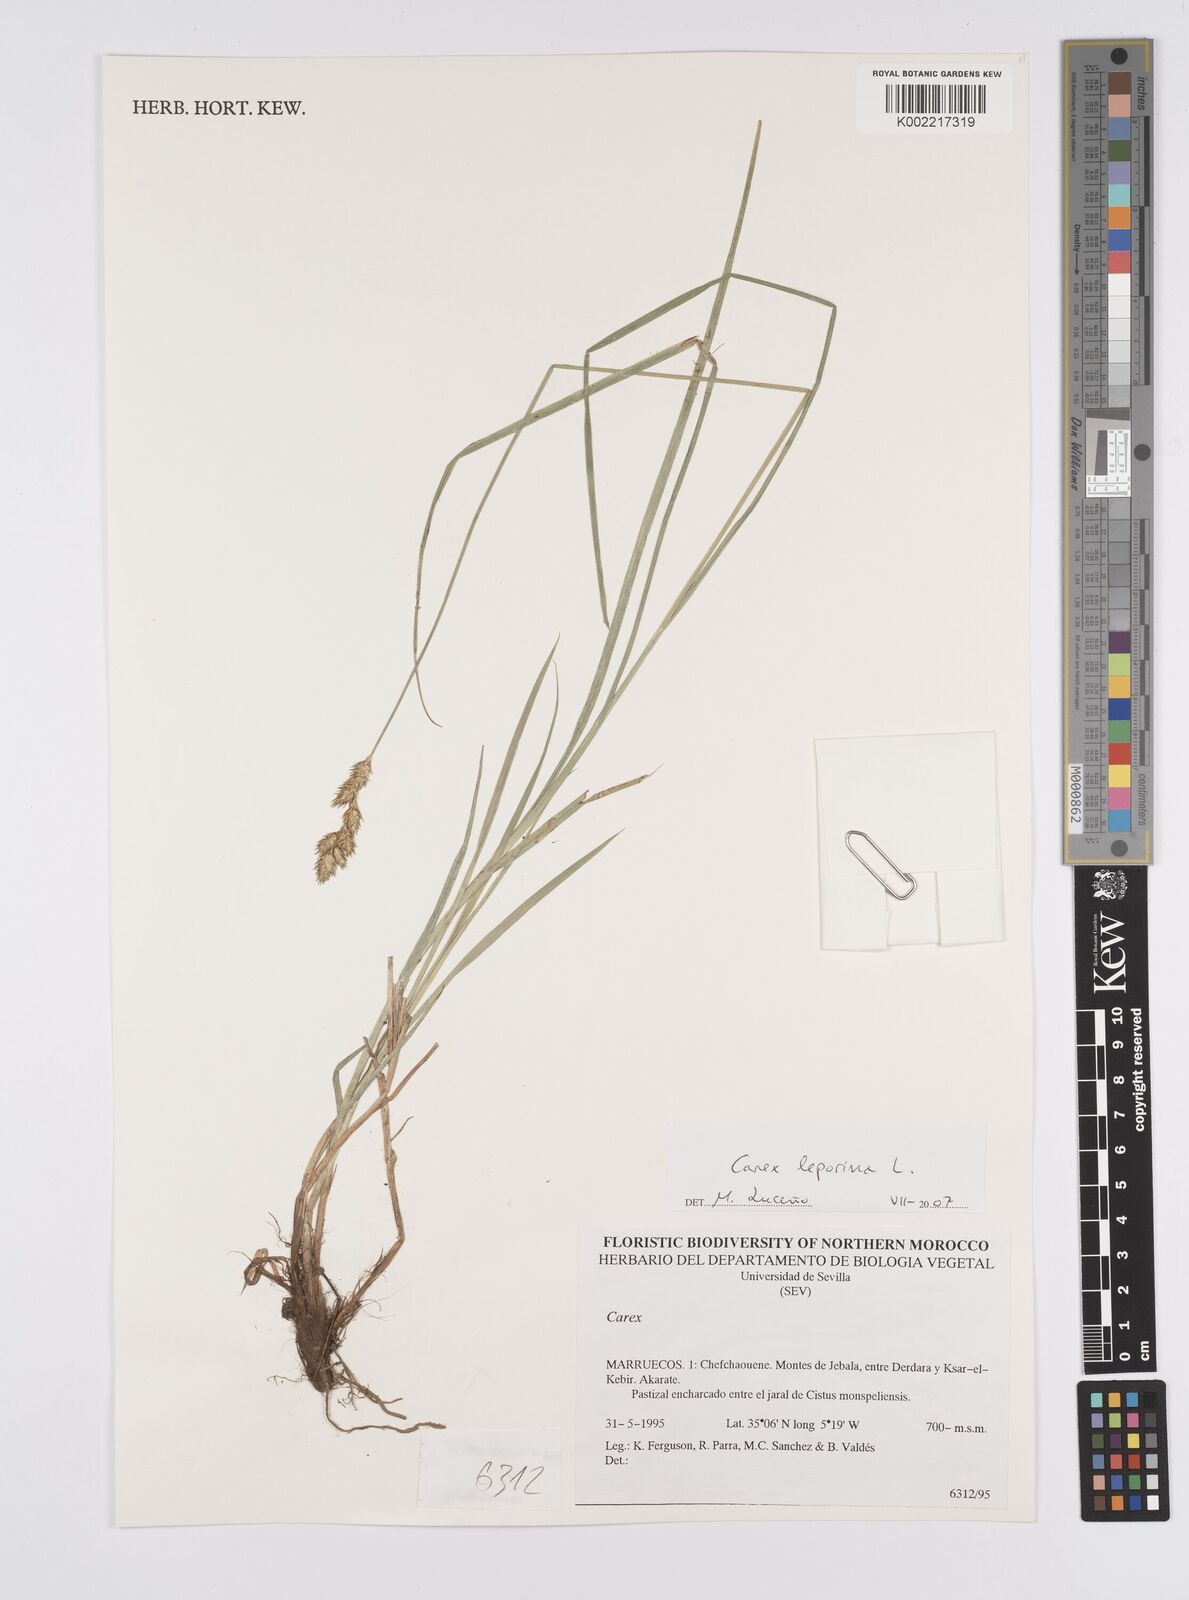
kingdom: Plantae
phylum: Tracheophyta
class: Liliopsida
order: Poales
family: Cyperaceae
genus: Carex
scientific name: Carex leporina
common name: Oval sedge
